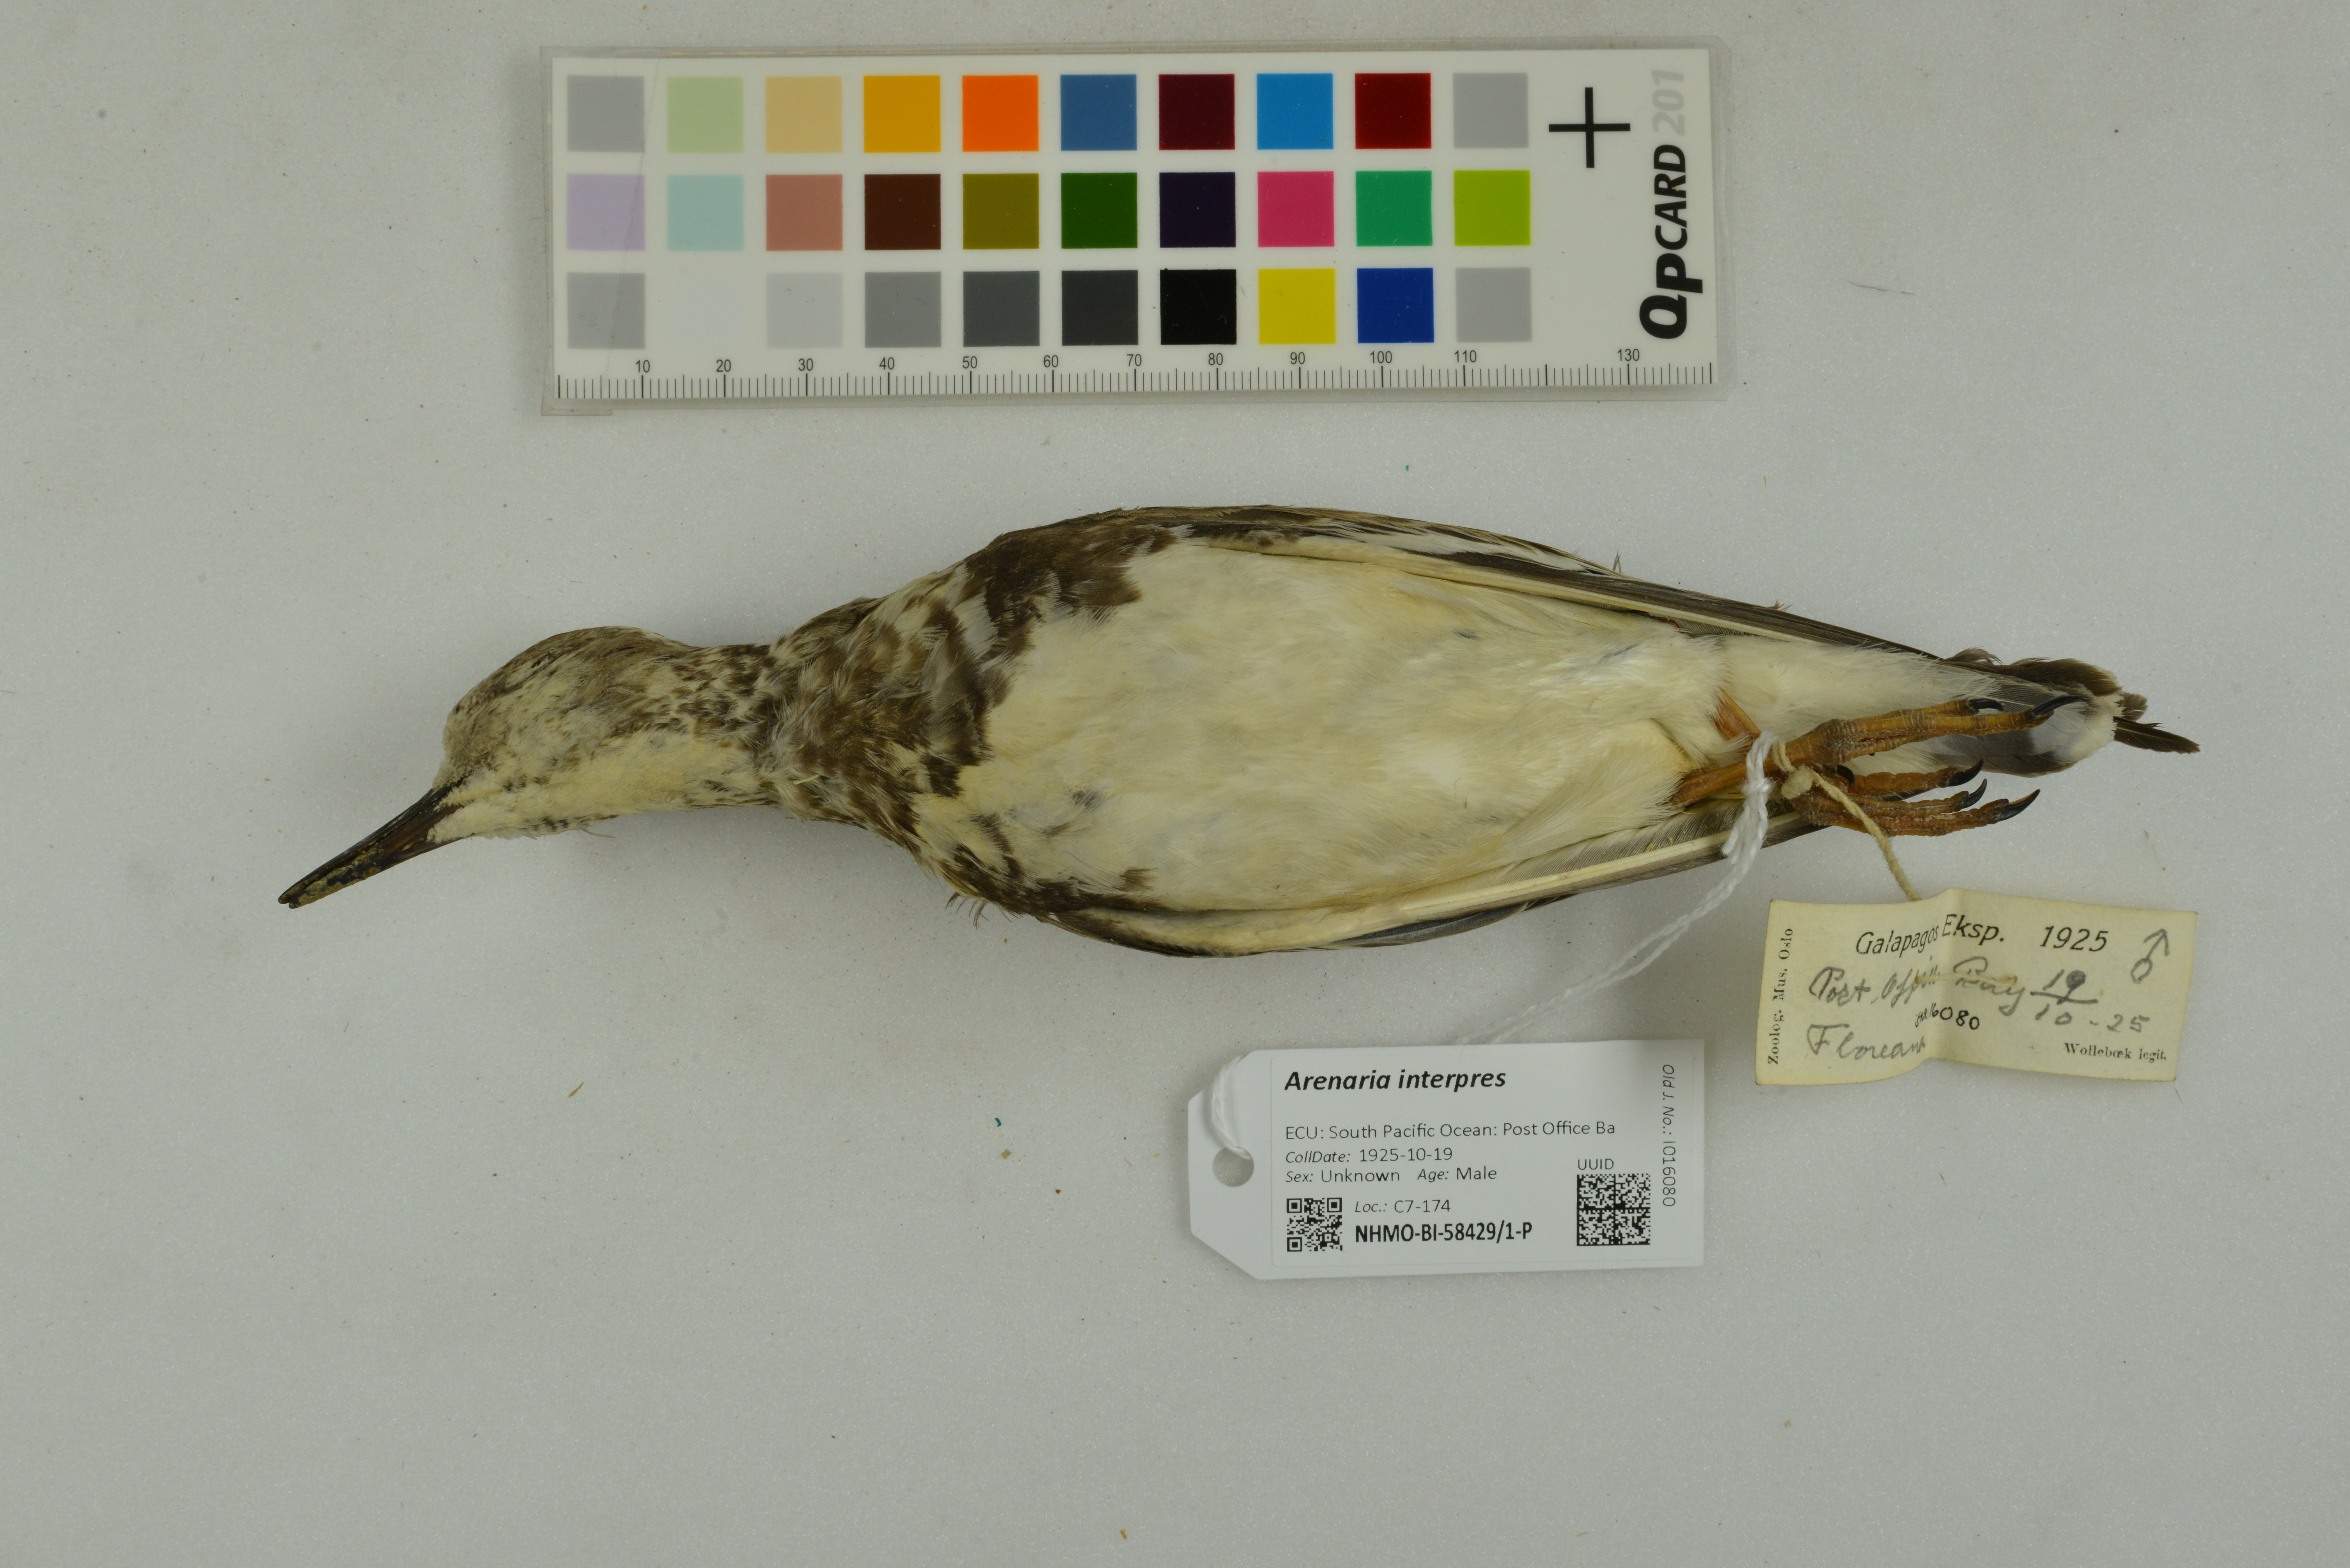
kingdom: Animalia
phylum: Chordata
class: Aves
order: Charadriiformes
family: Scolopacidae
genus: Arenaria
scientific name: Arenaria interpres
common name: Ruddy turnstone
